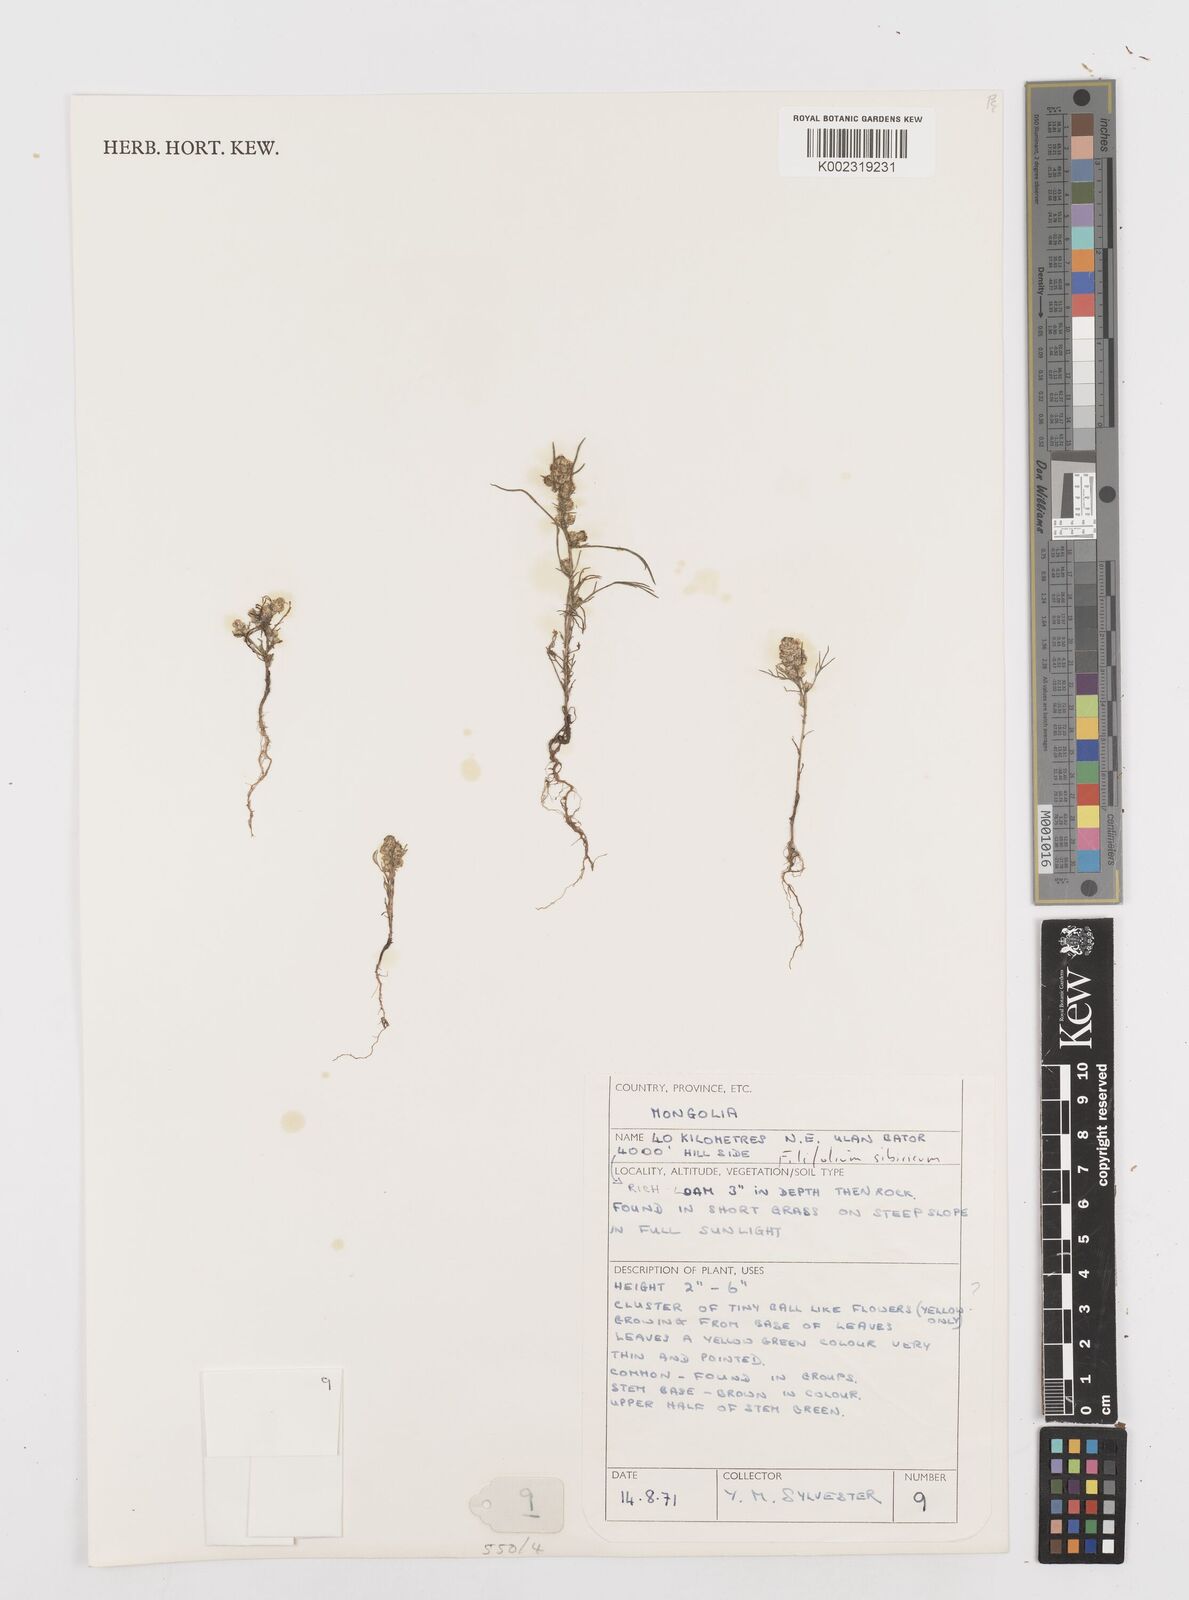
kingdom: Plantae
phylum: Tracheophyta
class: Magnoliopsida
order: Asterales
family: Asteraceae
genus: Filifolium
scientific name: Filifolium sibiricum
